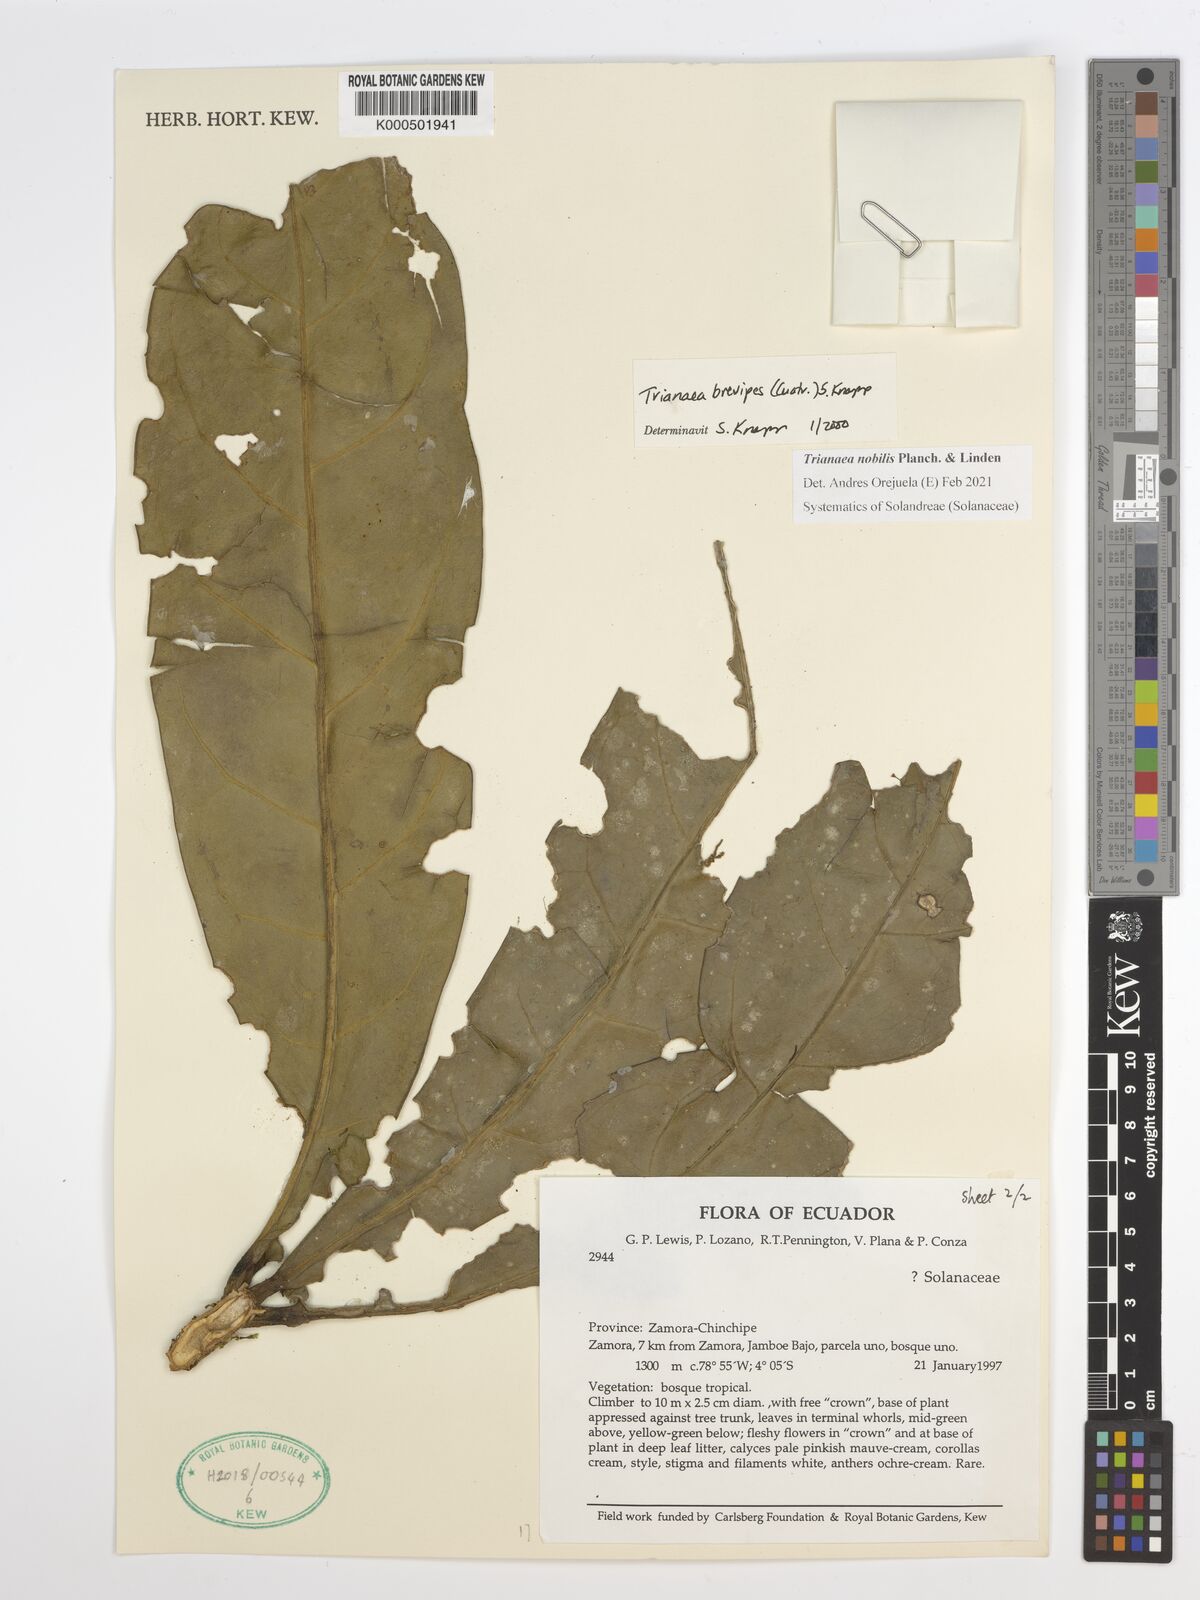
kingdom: Plantae
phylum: Tracheophyta
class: Magnoliopsida
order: Solanales
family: Solanaceae
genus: Trianaea
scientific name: Trianaea nobilis
